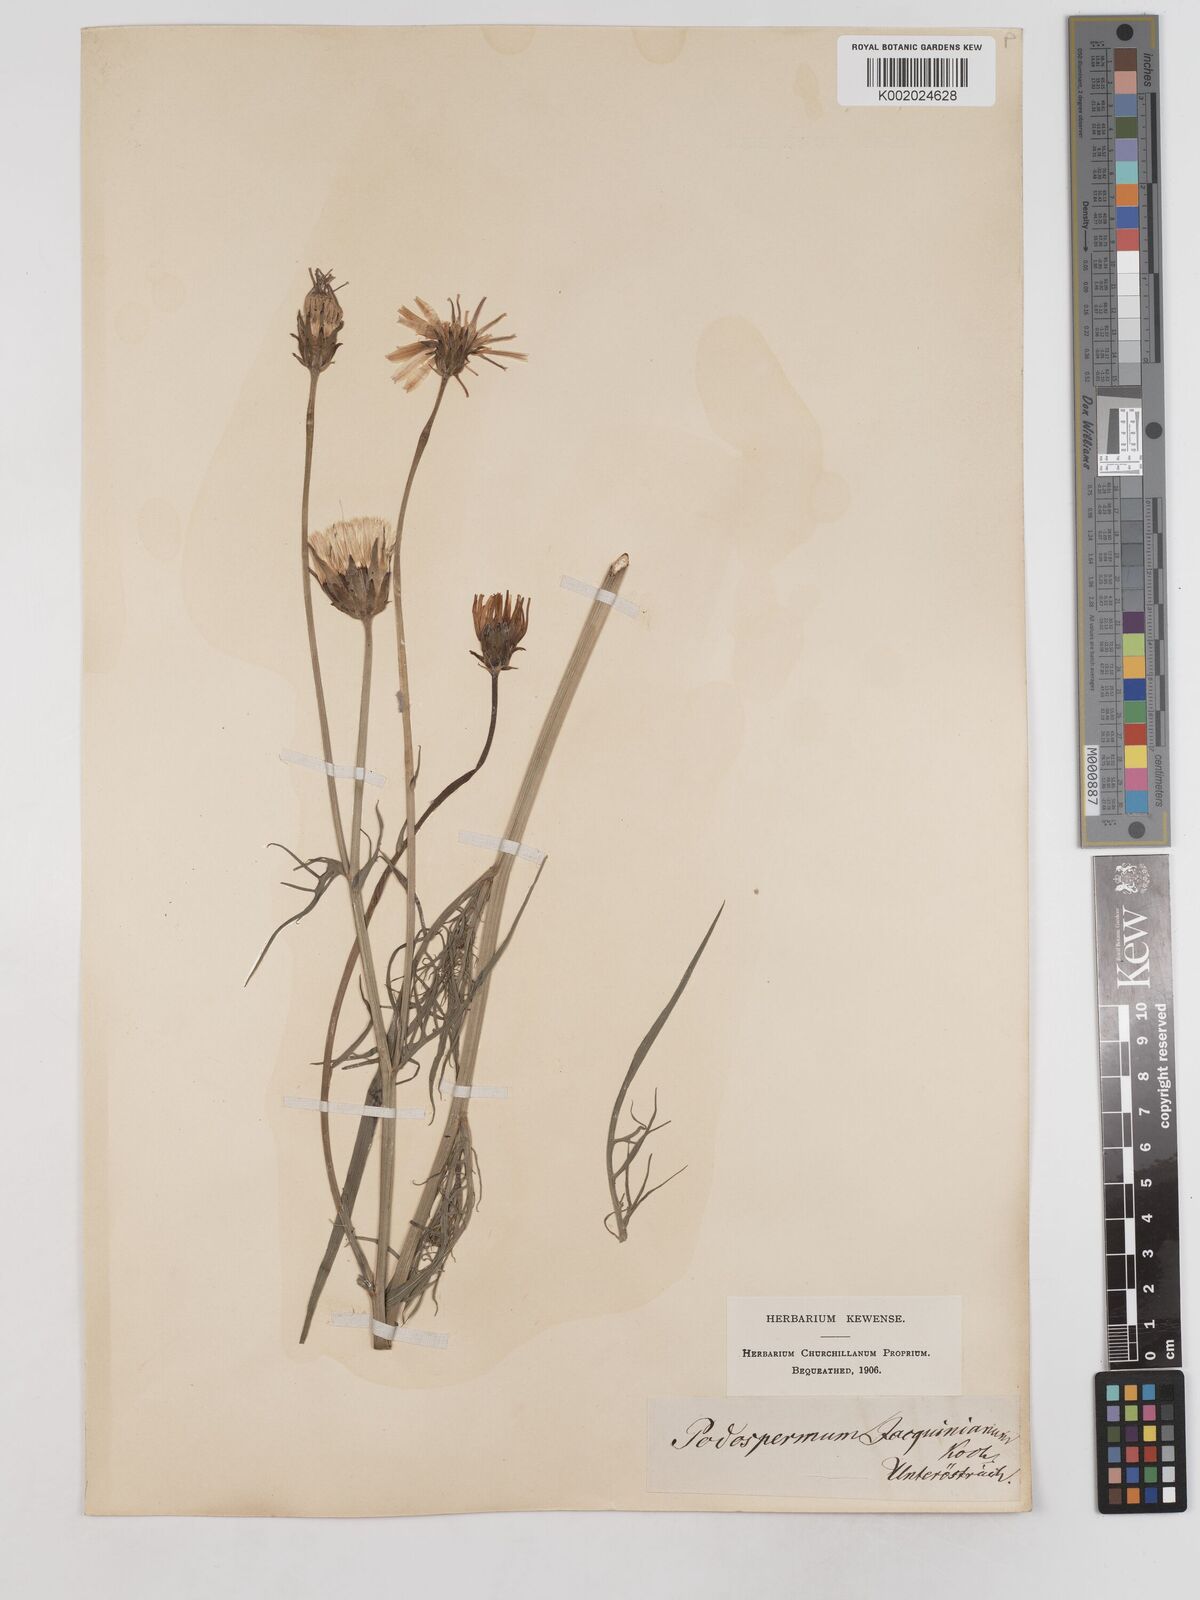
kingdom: Plantae
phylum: Tracheophyta
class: Magnoliopsida
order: Asterales
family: Asteraceae
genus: Scorzonera
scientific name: Scorzonera cana
